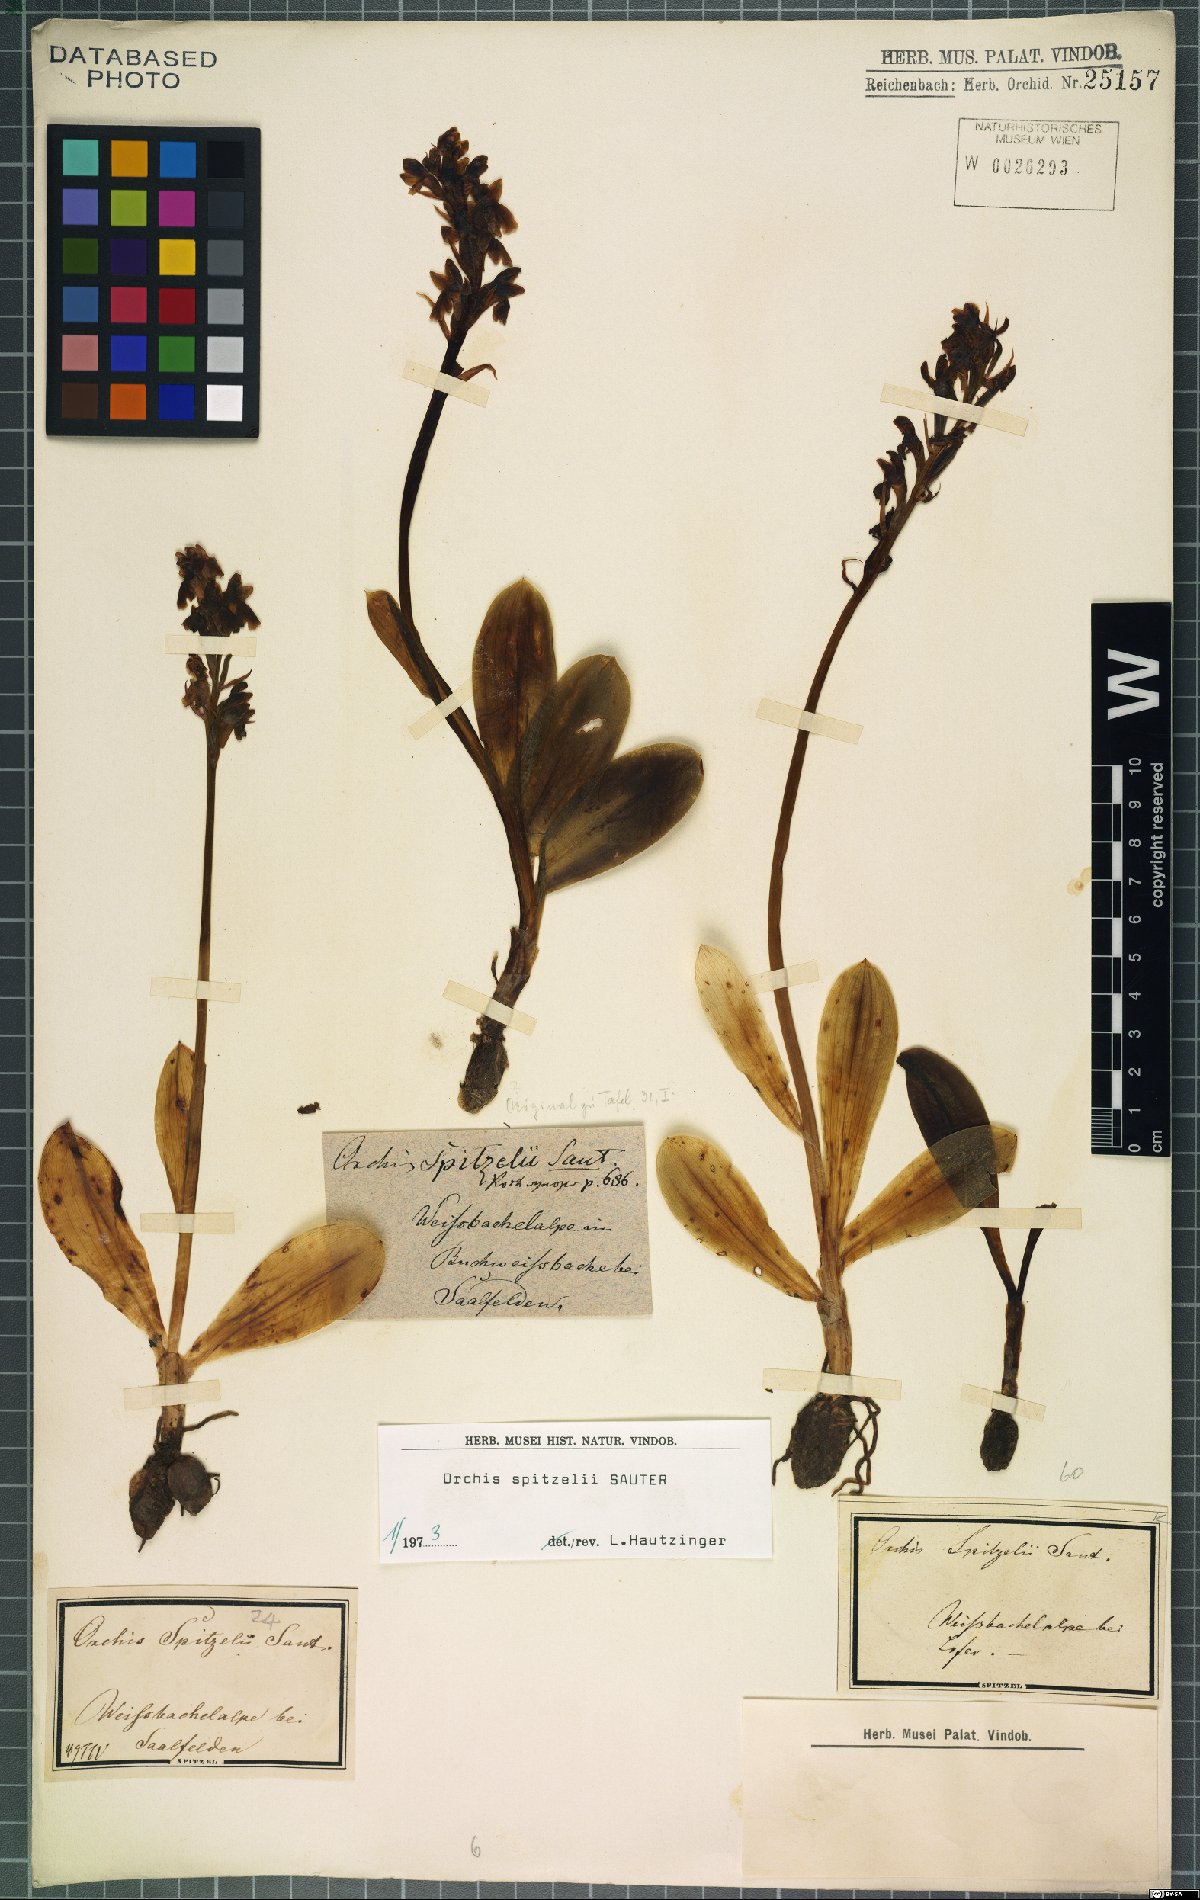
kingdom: Plantae
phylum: Tracheophyta
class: Liliopsida
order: Asparagales
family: Orchidaceae
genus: Orchis
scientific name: Orchis spitzelii
